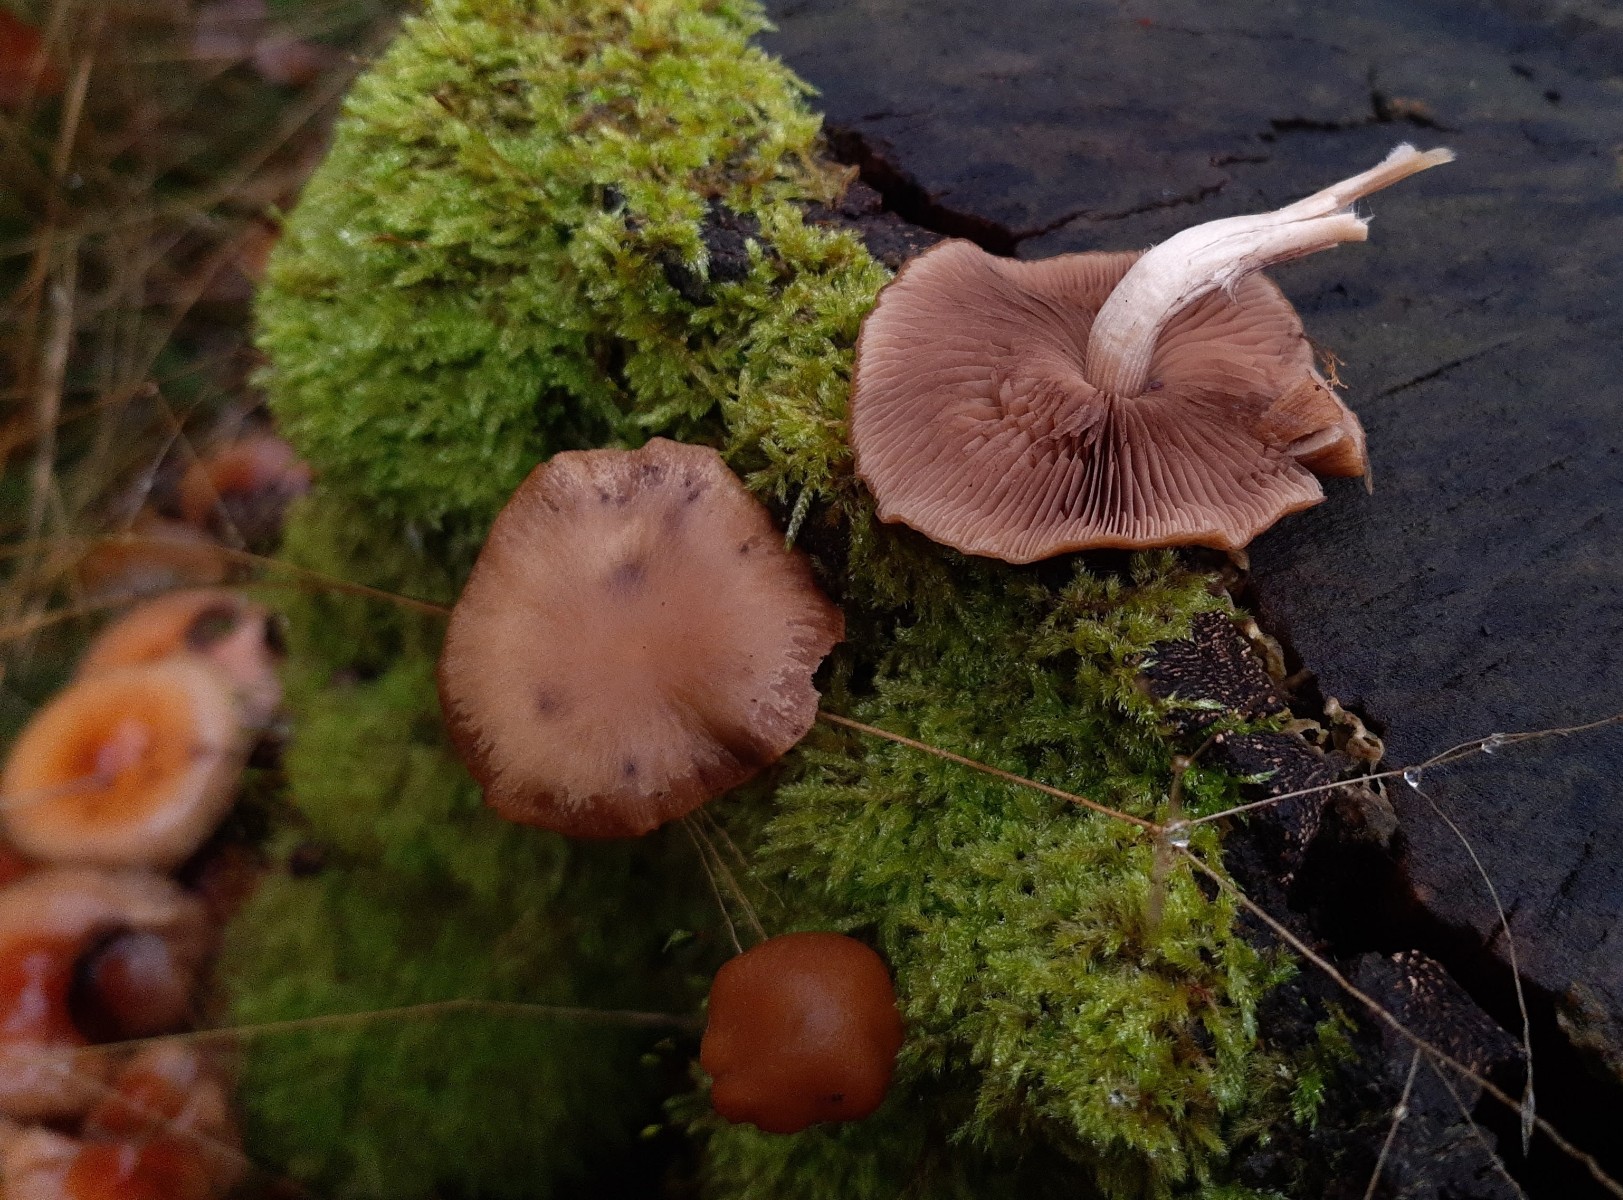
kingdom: Fungi
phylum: Basidiomycota
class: Agaricomycetes
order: Agaricales
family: Psathyrellaceae
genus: Psathyrella
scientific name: Psathyrella piluliformis
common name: lysstokket mørkhat
